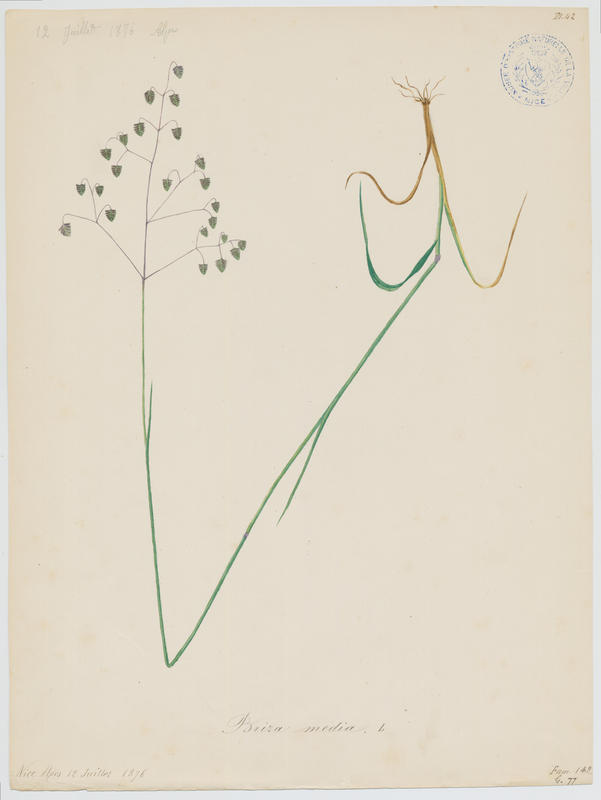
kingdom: Plantae
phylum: Tracheophyta
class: Liliopsida
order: Poales
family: Poaceae
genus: Briza
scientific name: Briza media
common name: Quaking grass
